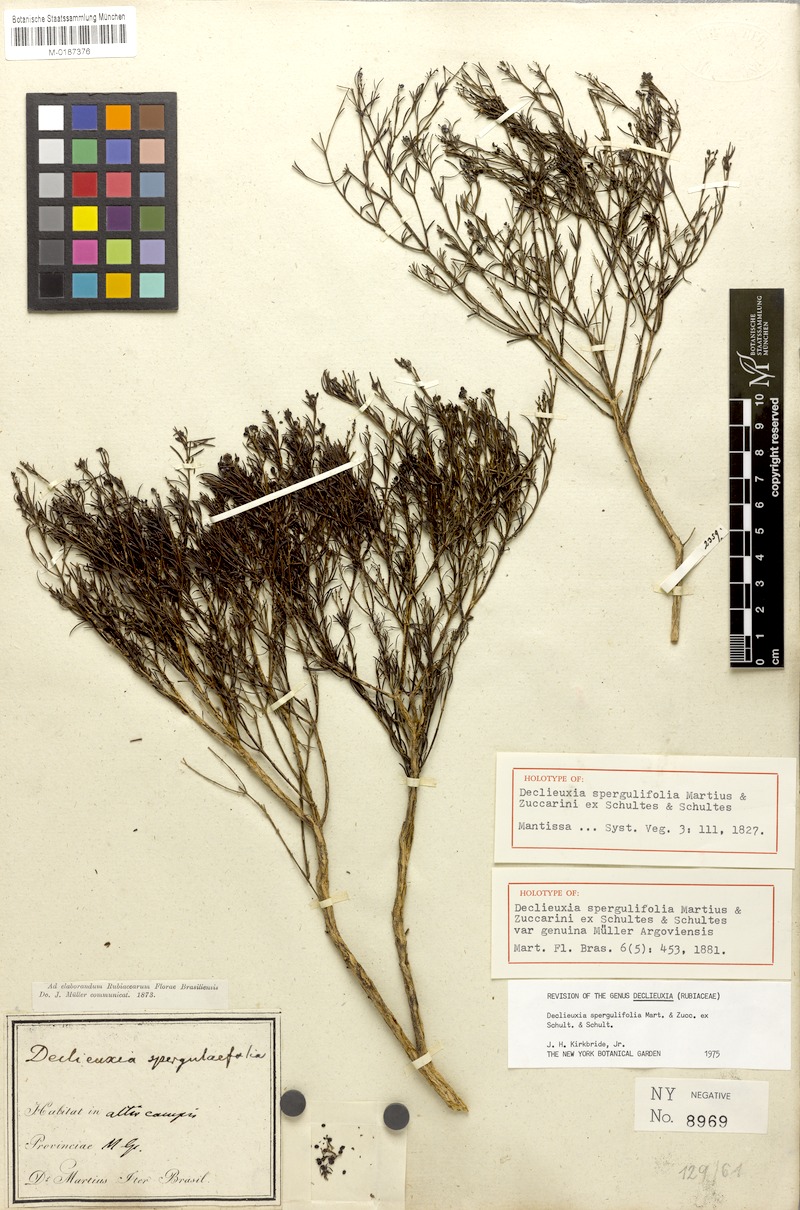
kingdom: Plantae
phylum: Tracheophyta
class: Magnoliopsida
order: Gentianales
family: Rubiaceae
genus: Declieuxia
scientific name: Declieuxia spergulifolia
